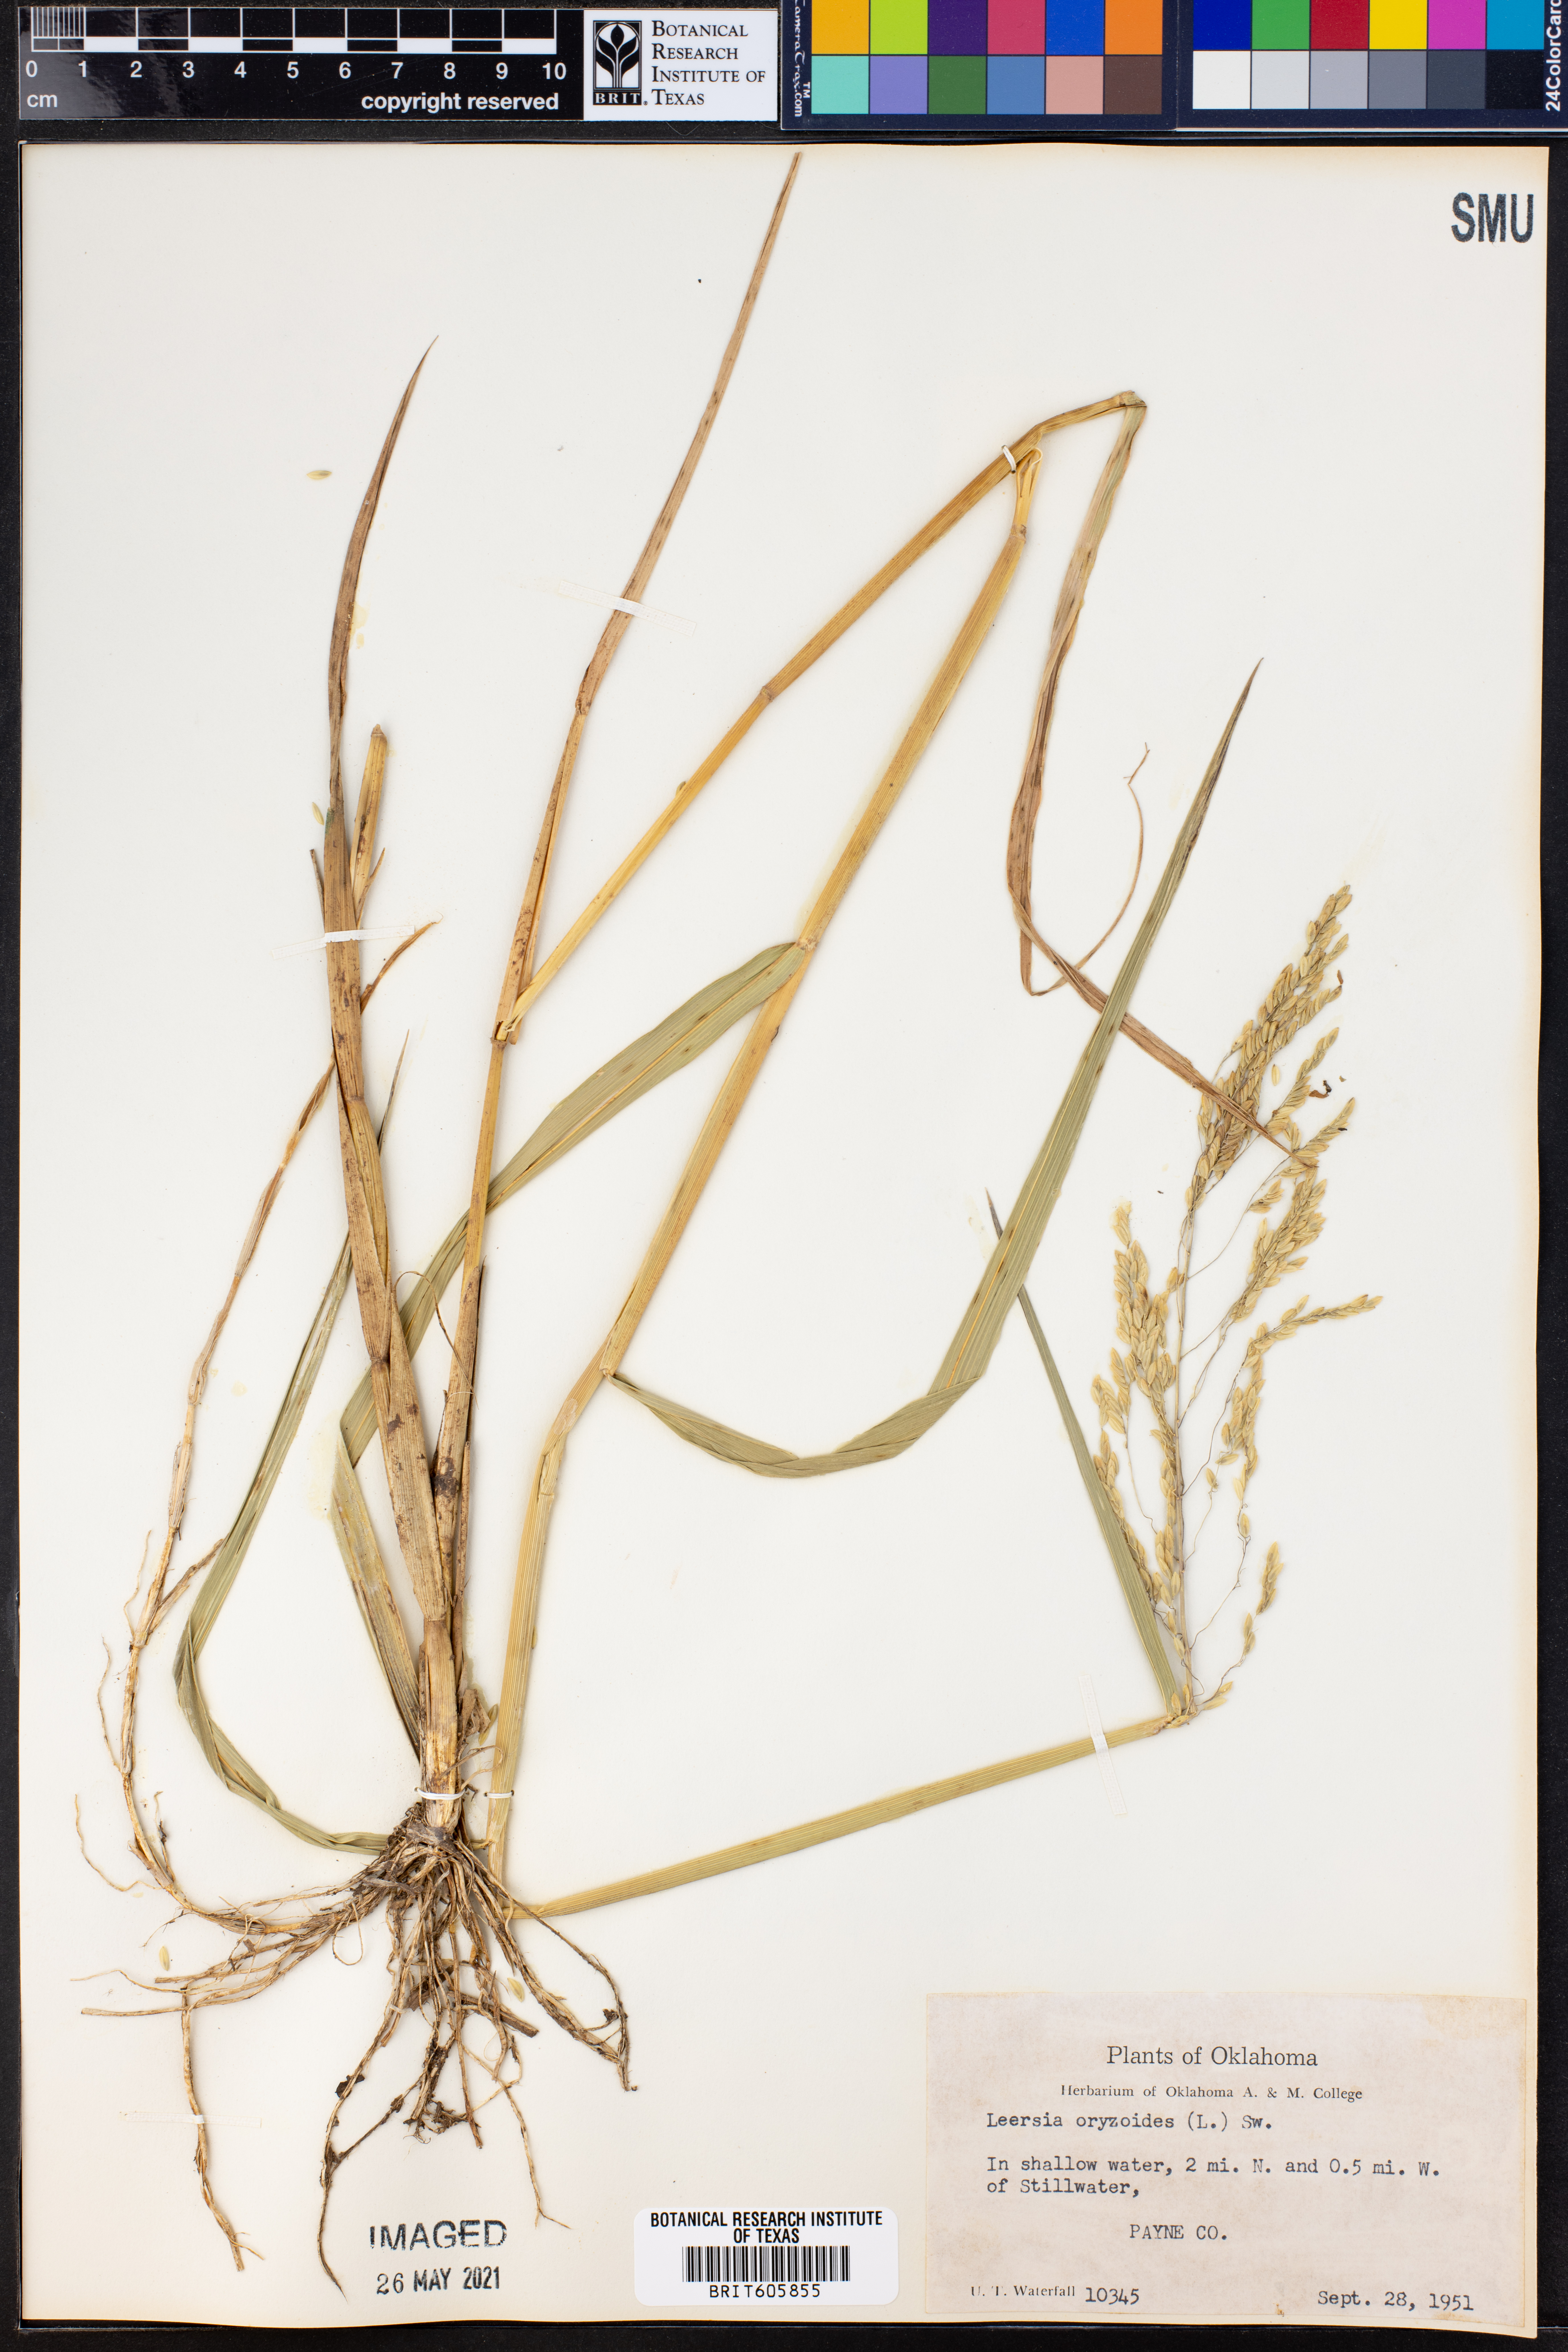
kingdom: Plantae
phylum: Tracheophyta
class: Liliopsida
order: Poales
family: Poaceae
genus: Leersia
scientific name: Leersia oryzoides
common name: Cut-grass
